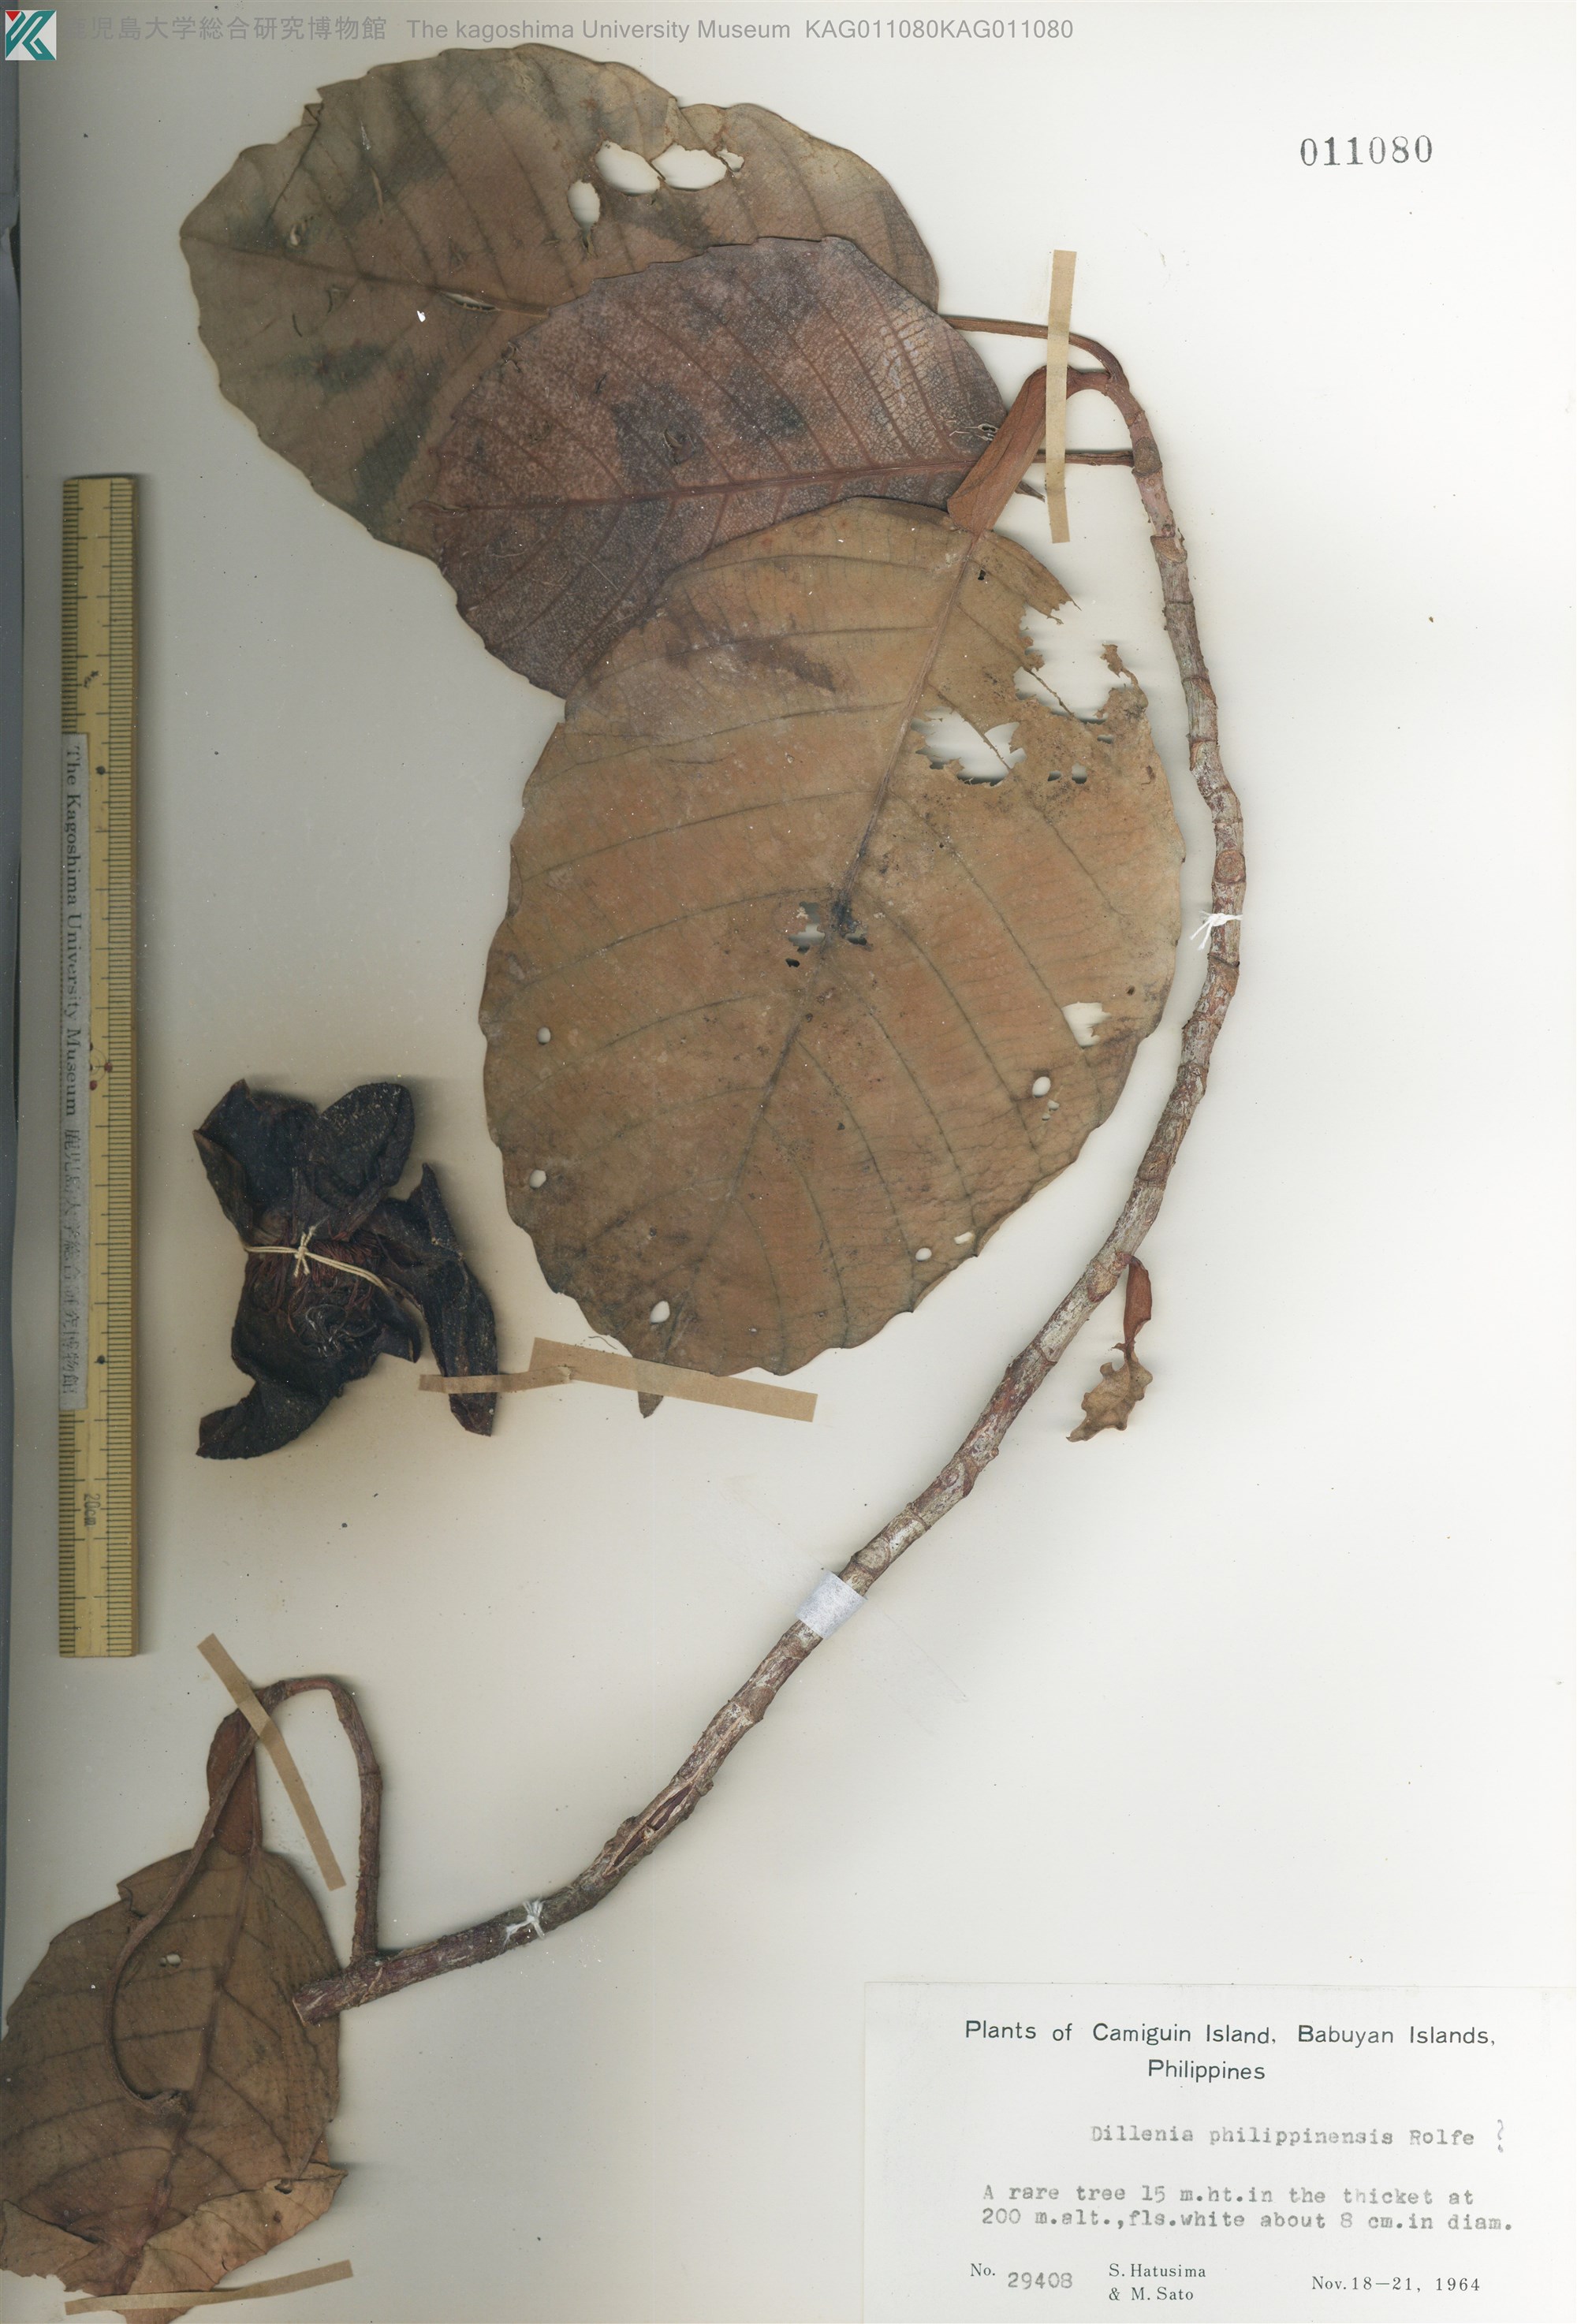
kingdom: Plantae
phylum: Tracheophyta
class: Magnoliopsida
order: Dilleniales
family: Dilleniaceae
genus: Dillenia
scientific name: Dillenia philippinensis
